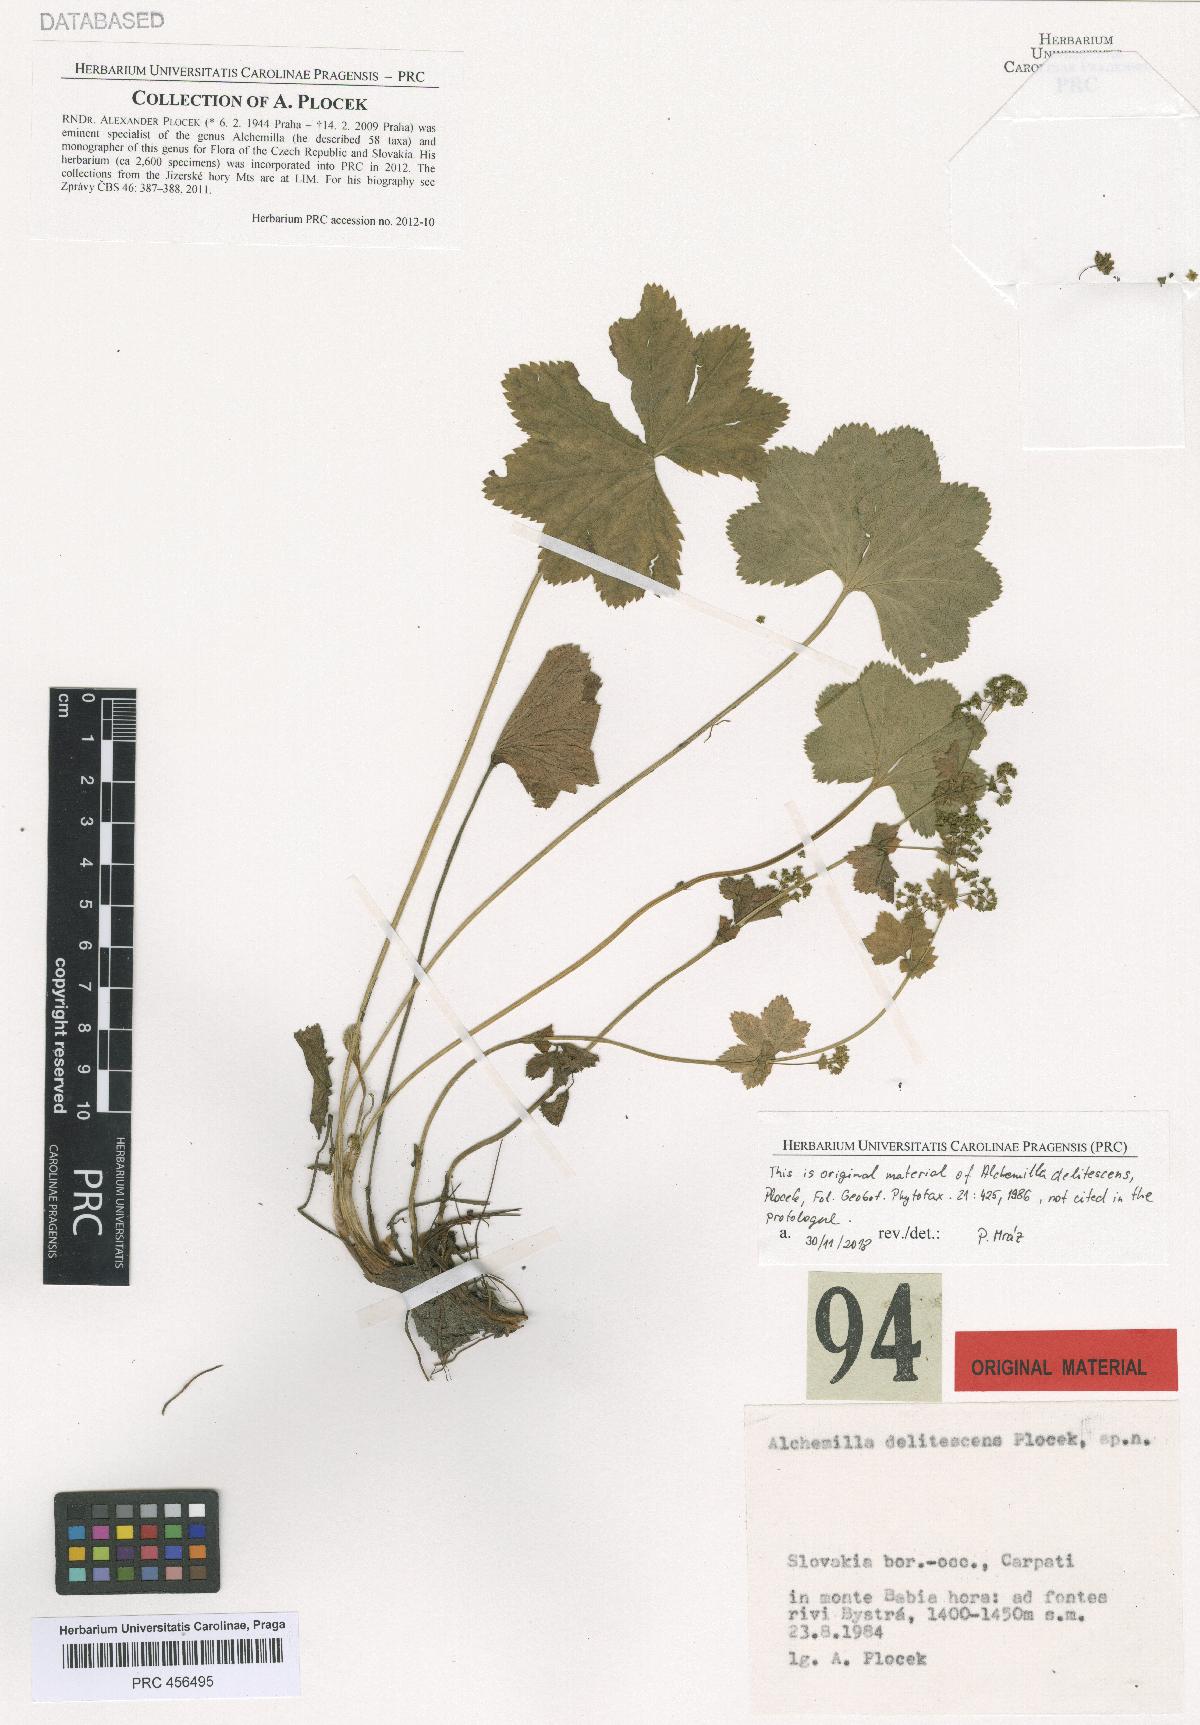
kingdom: Plantae
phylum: Tracheophyta
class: Magnoliopsida
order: Rosales
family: Rosaceae
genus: Alchemilla
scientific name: Alchemilla delitescens
